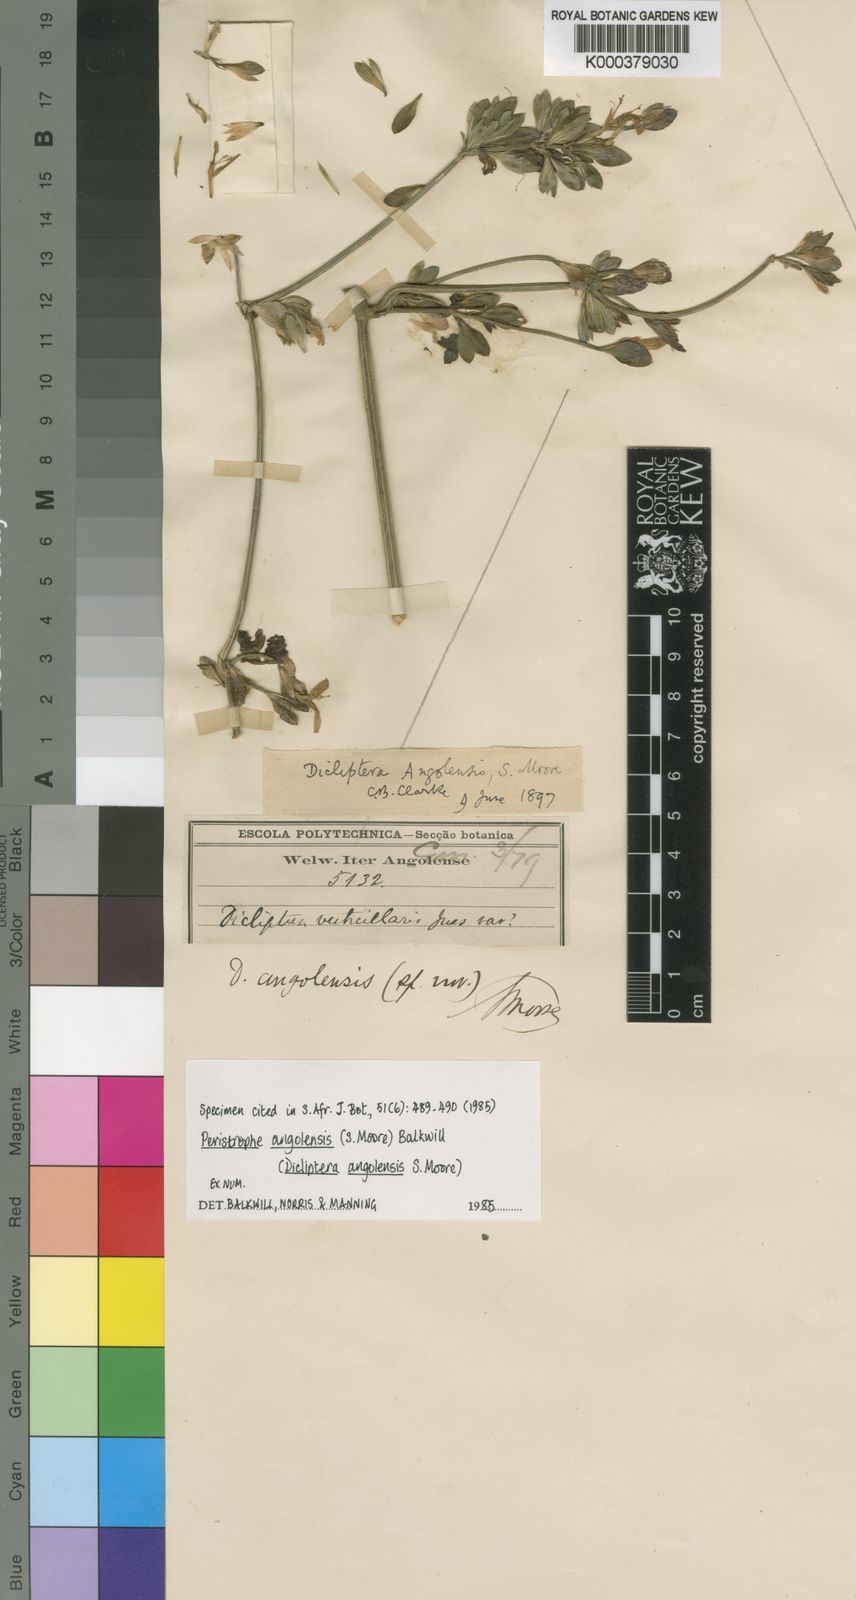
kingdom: Plantae
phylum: Tracheophyta
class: Magnoliopsida
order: Lamiales
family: Acanthaceae
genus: Dicliptera
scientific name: Dicliptera
